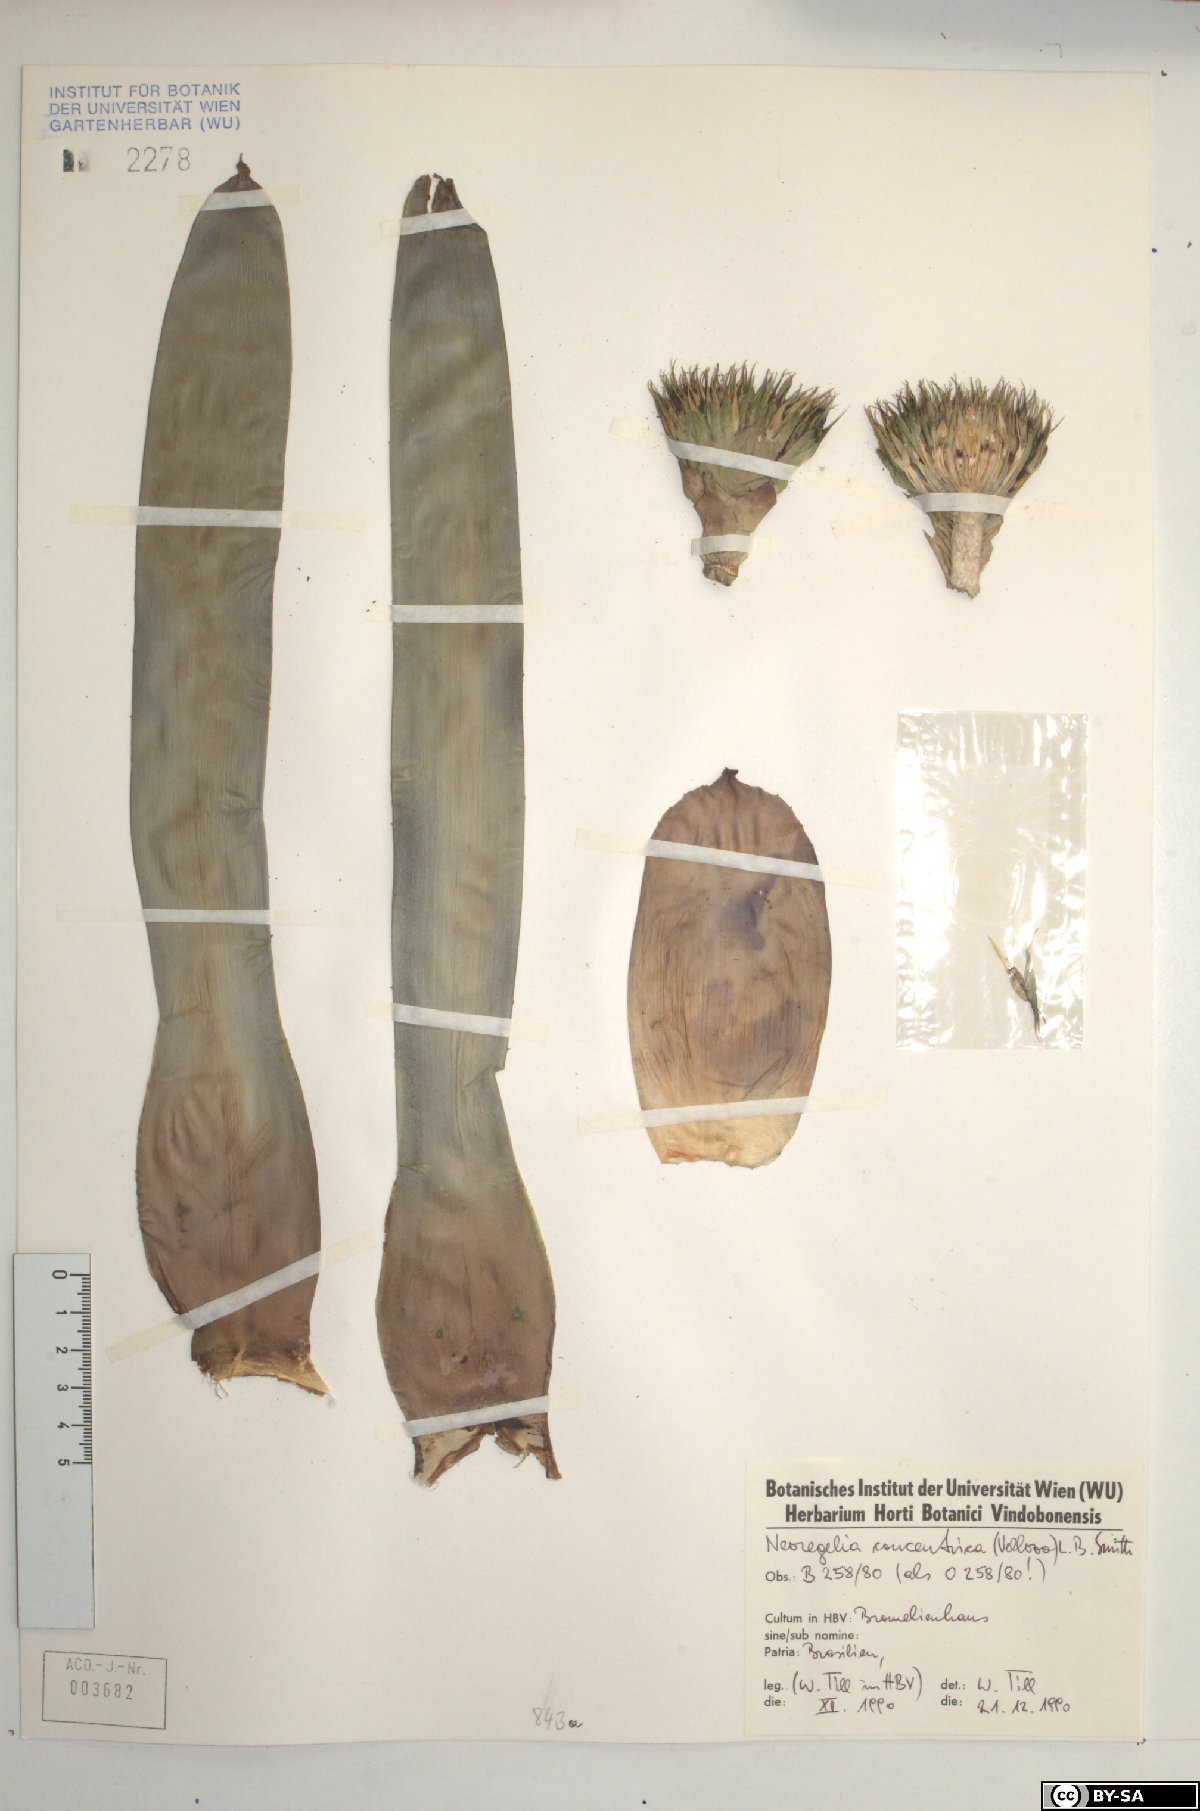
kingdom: Plantae
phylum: Tracheophyta
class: Liliopsida
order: Poales
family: Bromeliaceae
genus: Neoregelia
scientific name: Neoregelia concentrica
